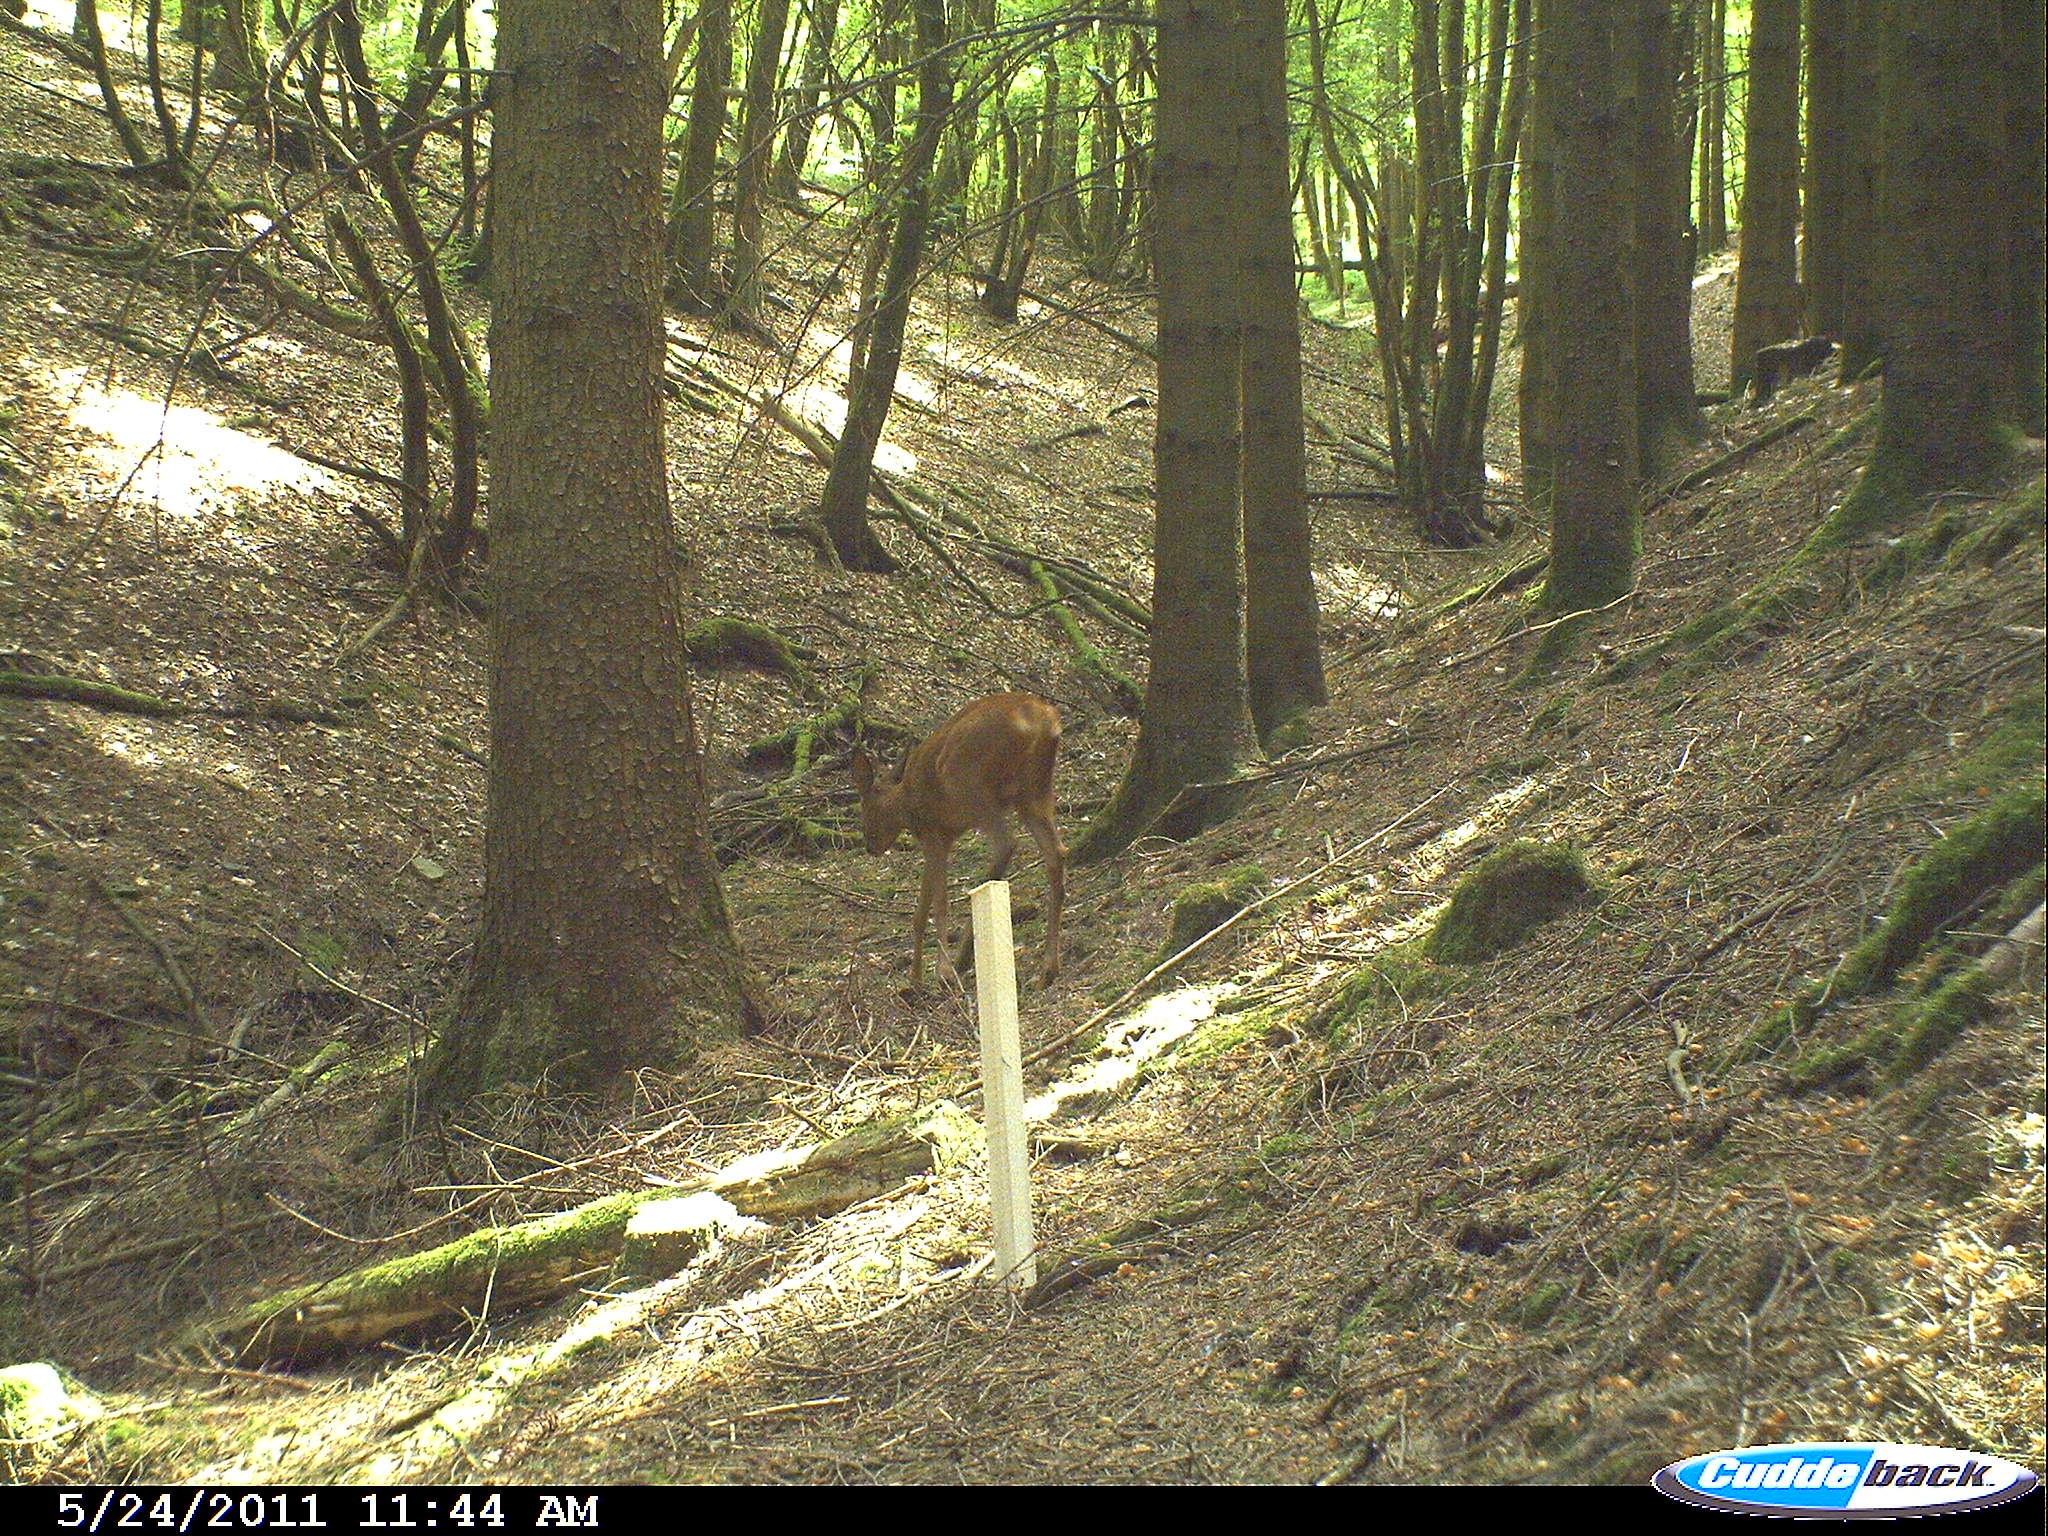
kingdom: Animalia
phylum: Chordata
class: Mammalia
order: Artiodactyla
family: Cervidae
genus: Capreolus
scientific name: Capreolus capreolus
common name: Western roe deer
